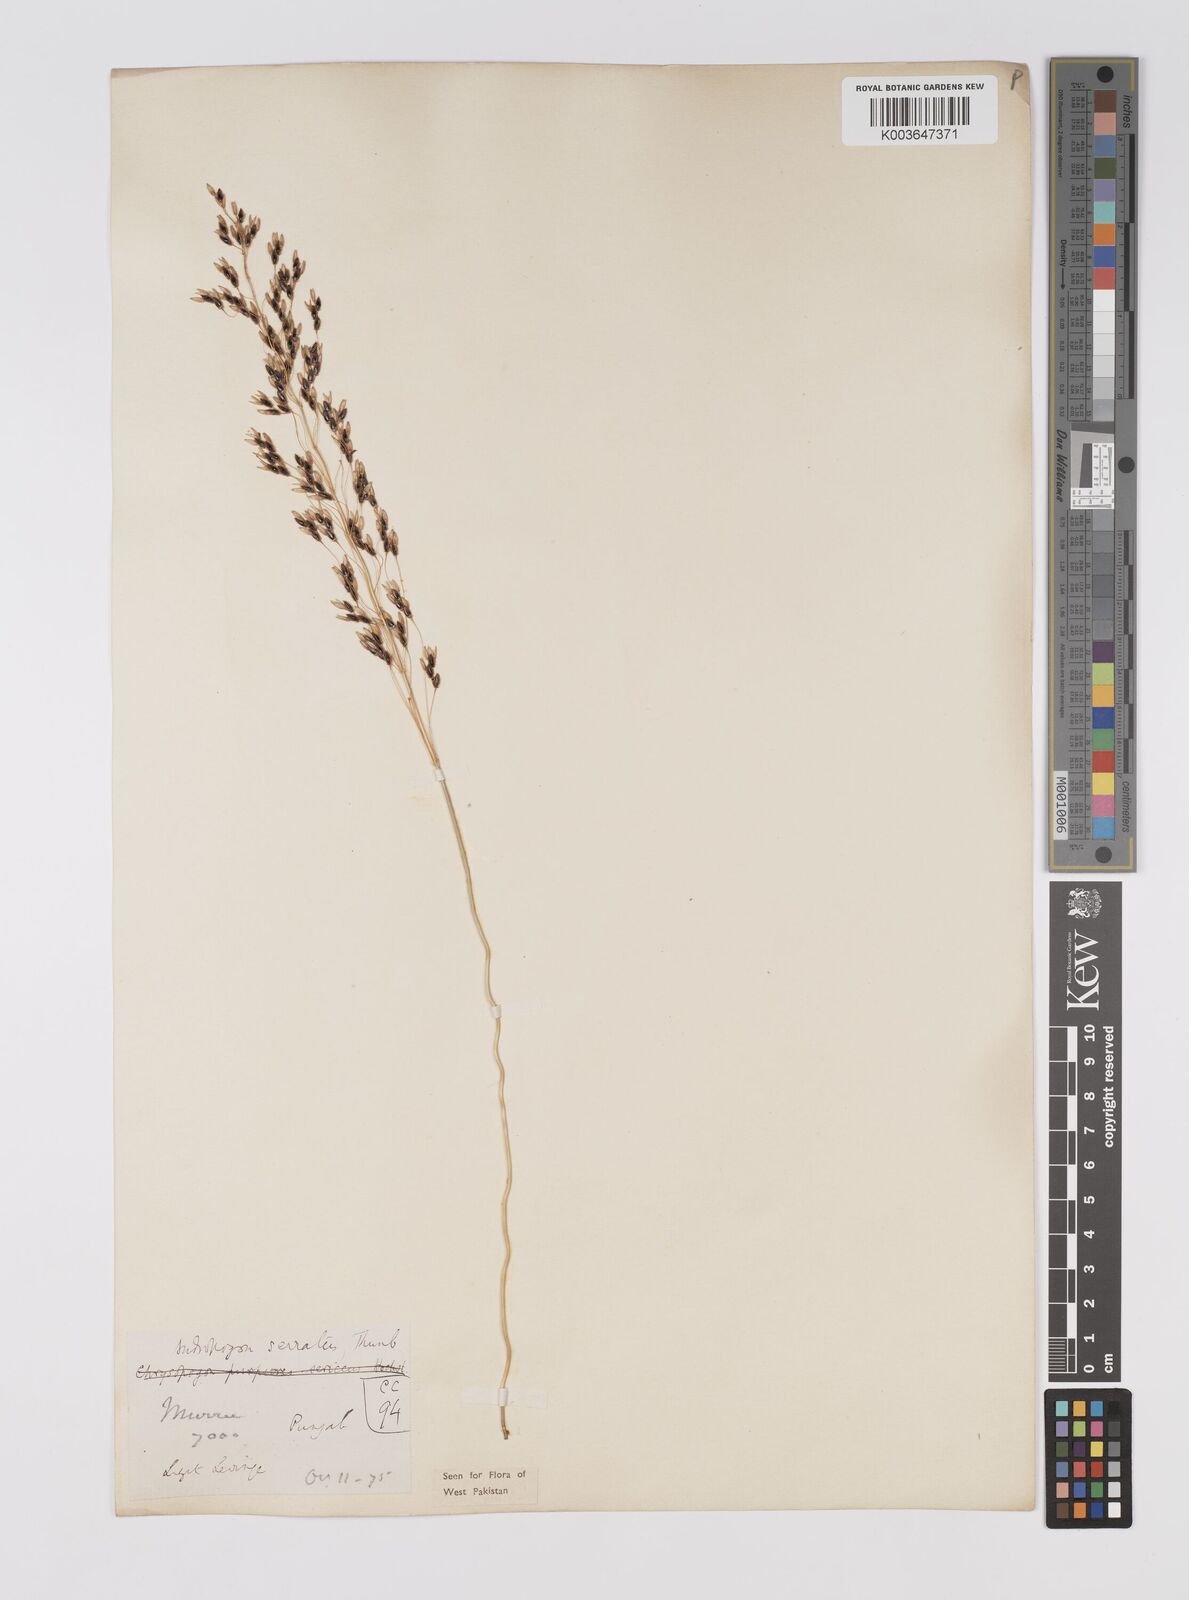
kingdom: Plantae
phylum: Tracheophyta
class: Liliopsida
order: Poales
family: Poaceae
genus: Sorghum
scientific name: Sorghum nitidum
